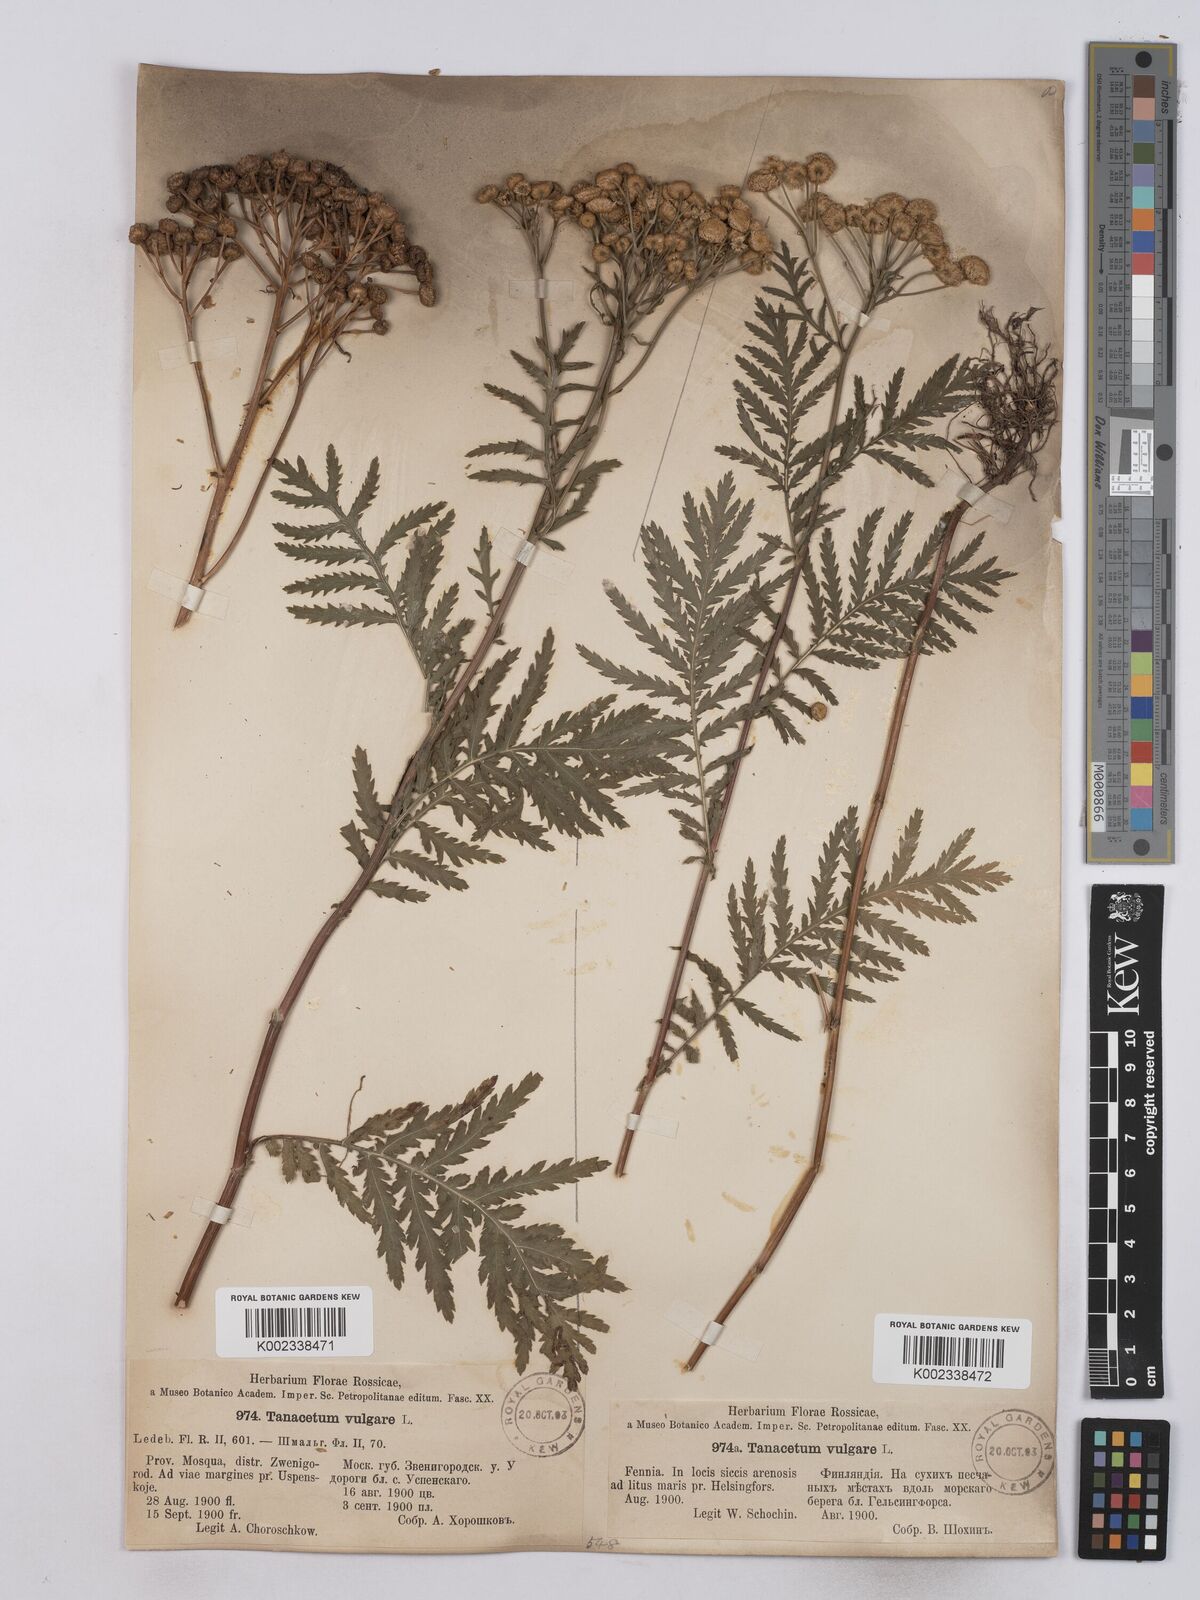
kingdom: Plantae
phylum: Tracheophyta
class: Magnoliopsida
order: Asterales
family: Asteraceae
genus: Tanacetum
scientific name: Tanacetum vulgare
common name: Common tansy
